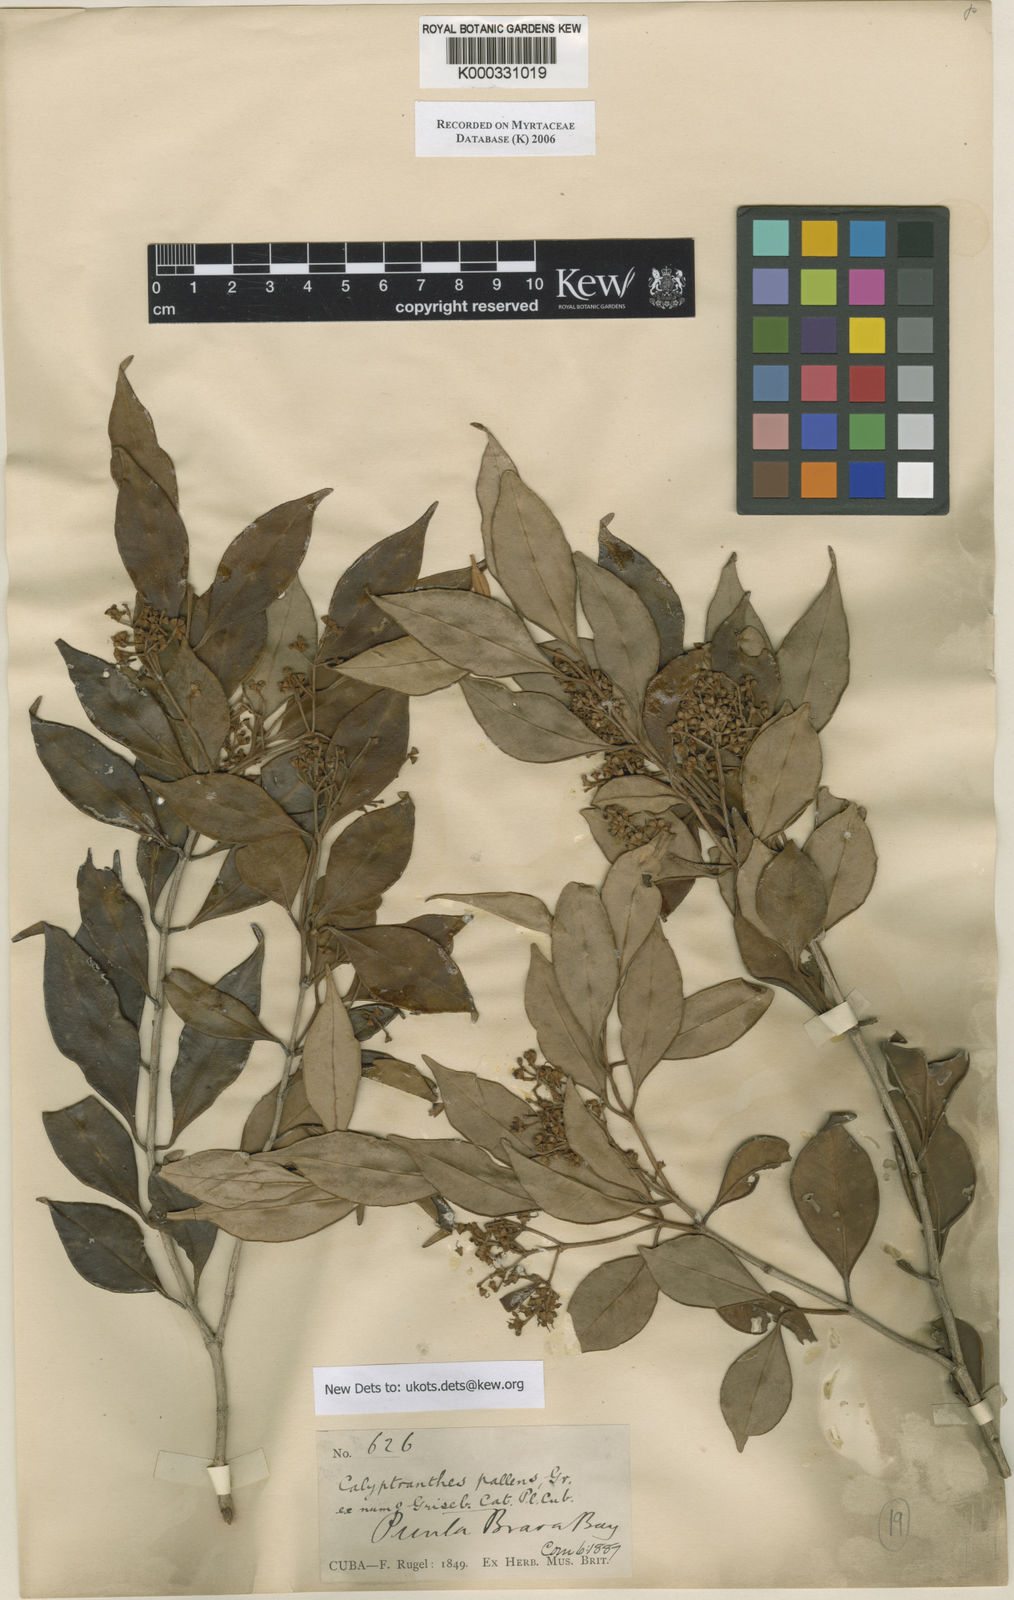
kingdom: Plantae
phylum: Tracheophyta
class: Magnoliopsida
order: Myrtales
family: Myrtaceae
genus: Myrcia
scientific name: Myrcia neopallens
